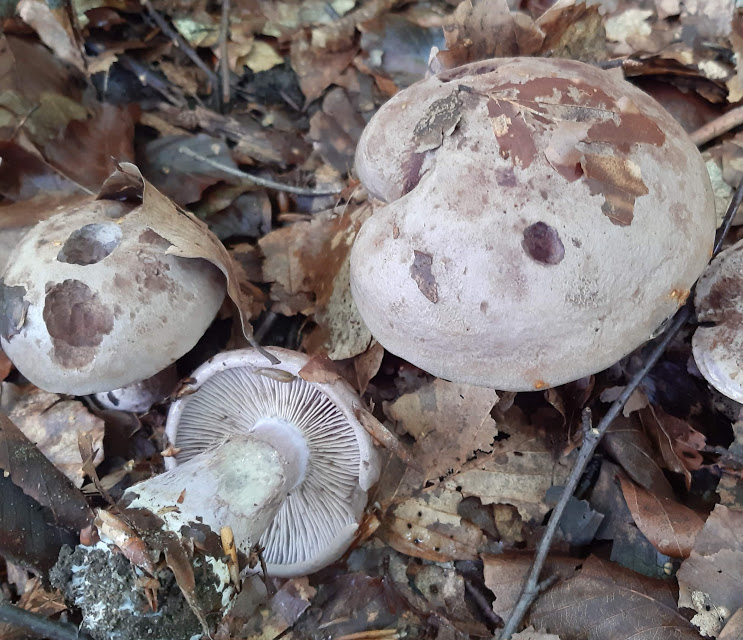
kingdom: Fungi
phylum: Basidiomycota
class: Agaricomycetes
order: Agaricales
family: Cortinariaceae
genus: Cortinarius
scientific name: Cortinarius
